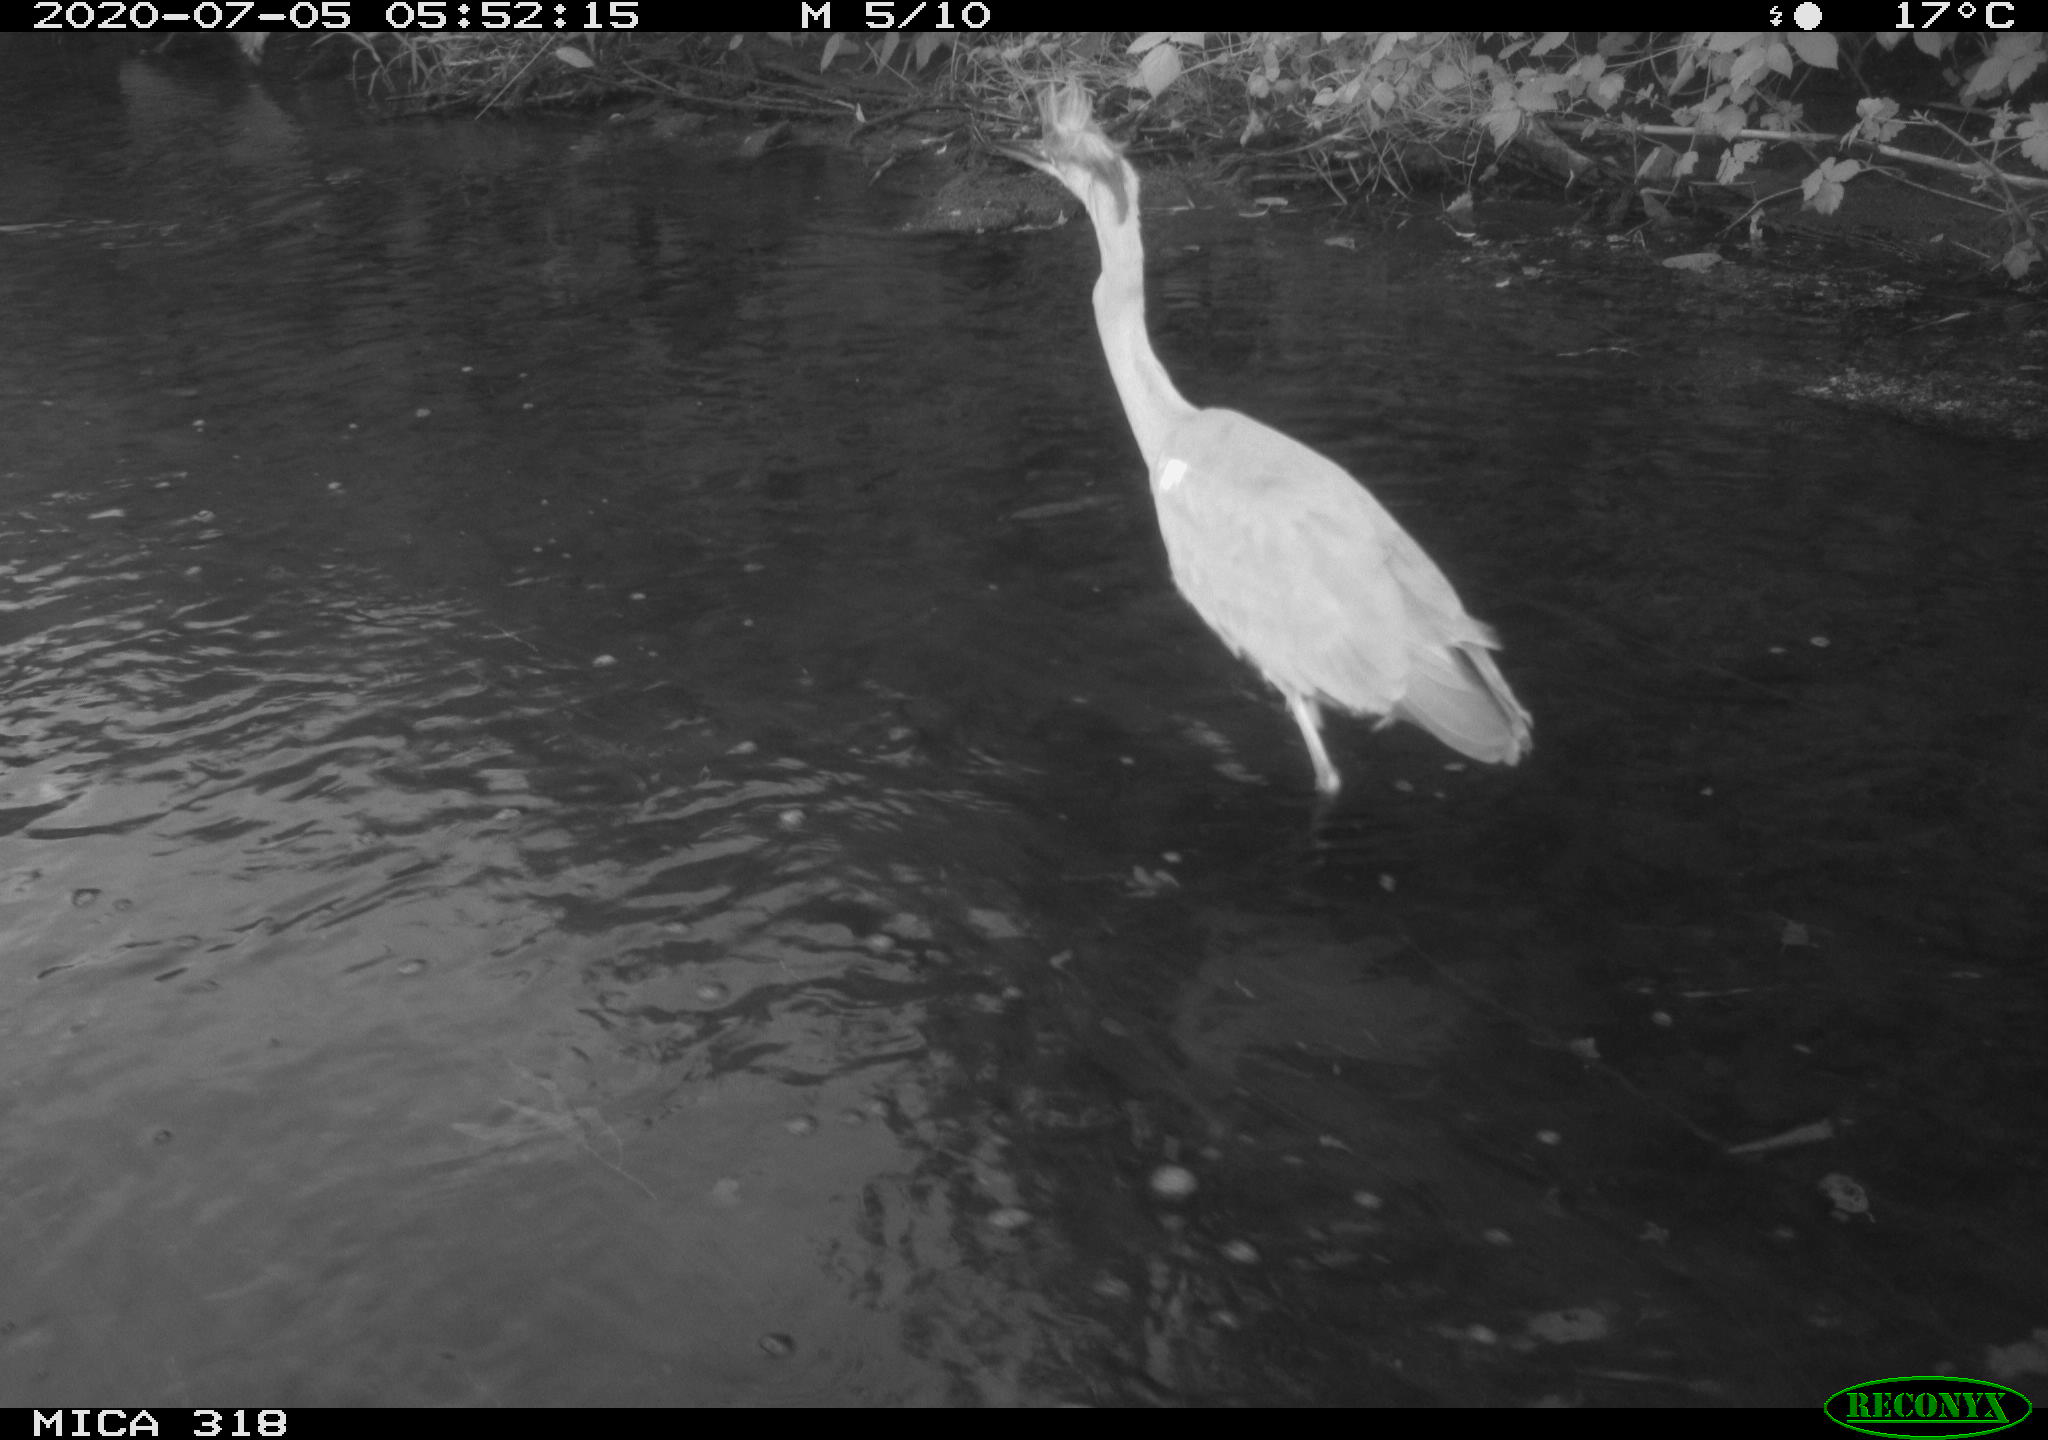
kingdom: Animalia
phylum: Chordata
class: Aves
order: Pelecaniformes
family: Ardeidae
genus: Ardea
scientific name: Ardea cinerea
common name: Grey heron
